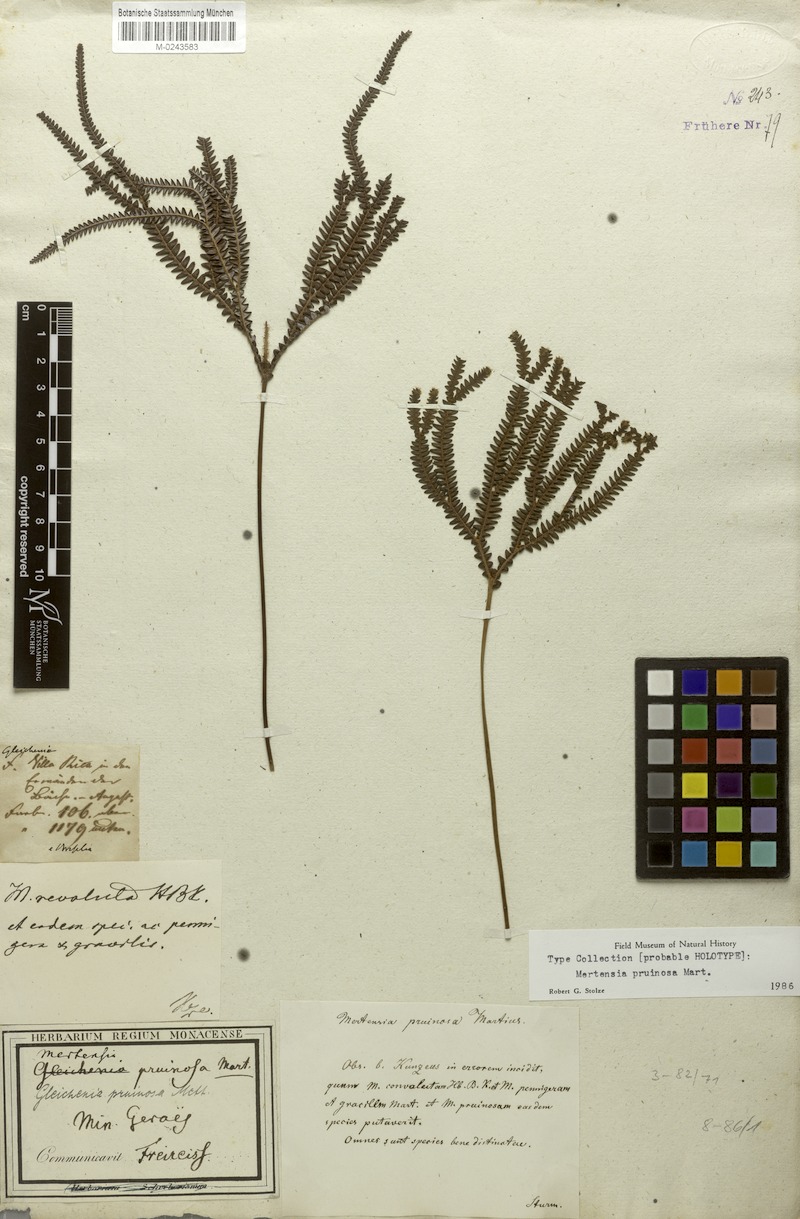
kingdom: Plantae
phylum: Tracheophyta
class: Polypodiopsida
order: Gleicheniales
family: Gleicheniaceae
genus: Sticherus
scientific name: Sticherus pruinosus
